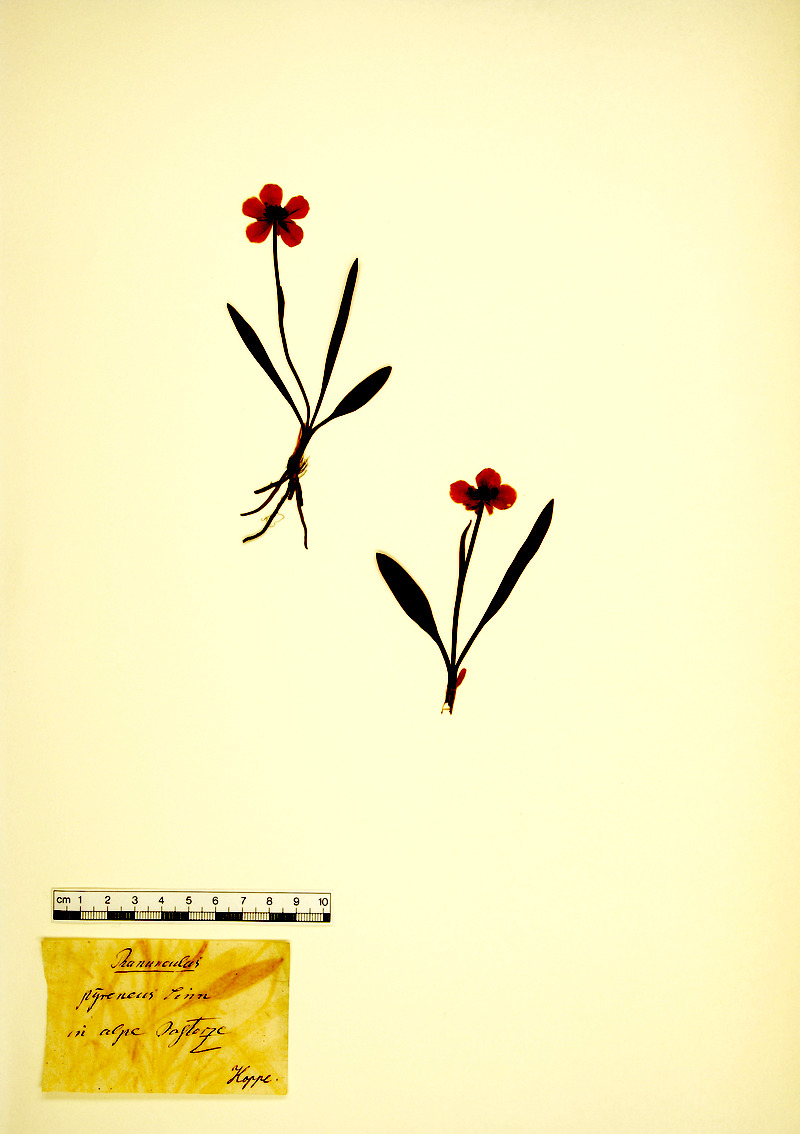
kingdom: Plantae
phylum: Tracheophyta
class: Magnoliopsida
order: Ranunculales
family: Ranunculaceae
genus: Ranunculus
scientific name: Ranunculus pyrenaeus
